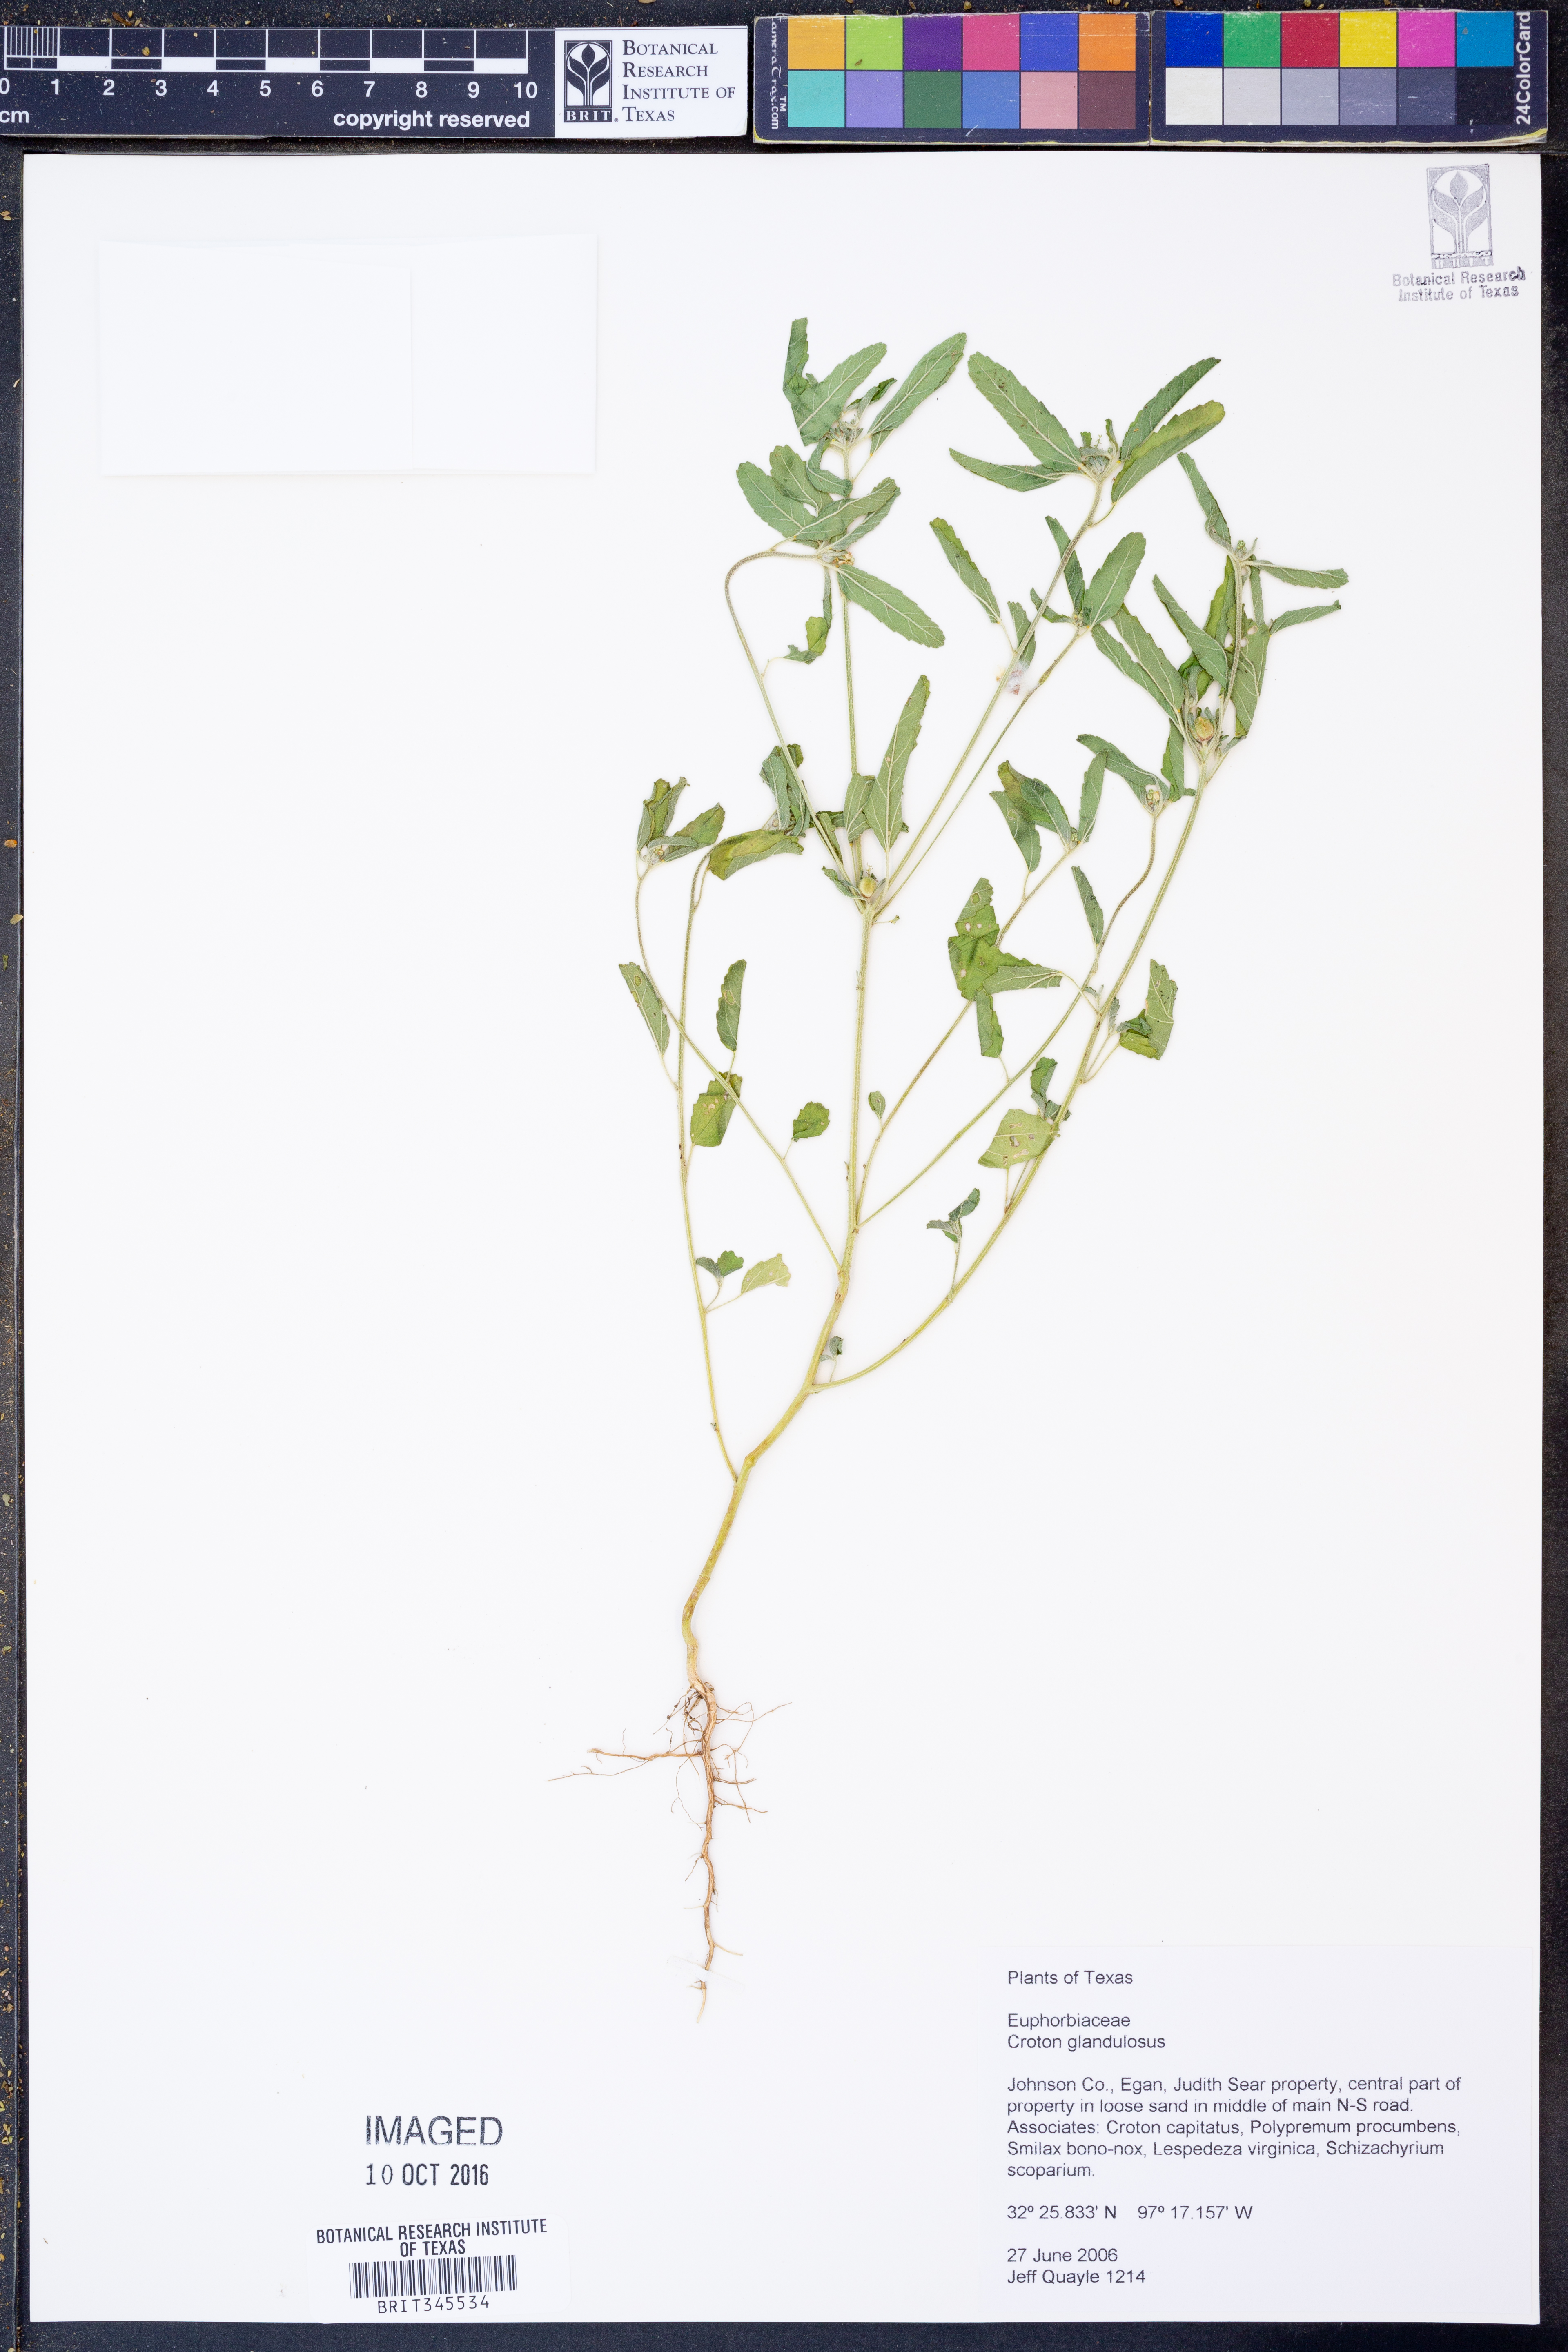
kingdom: Plantae
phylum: Tracheophyta
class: Magnoliopsida
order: Malpighiales
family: Euphorbiaceae
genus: Croton
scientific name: Croton glandulosus
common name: Tropic croton
